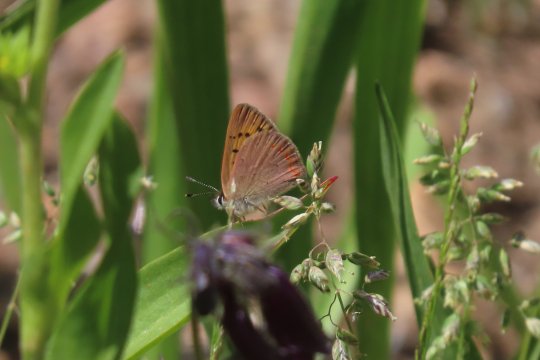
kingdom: Animalia
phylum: Arthropoda
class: Insecta
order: Lepidoptera
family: Sesiidae
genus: Sesia
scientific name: Sesia Lycaena helloides
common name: Purplish Copper
